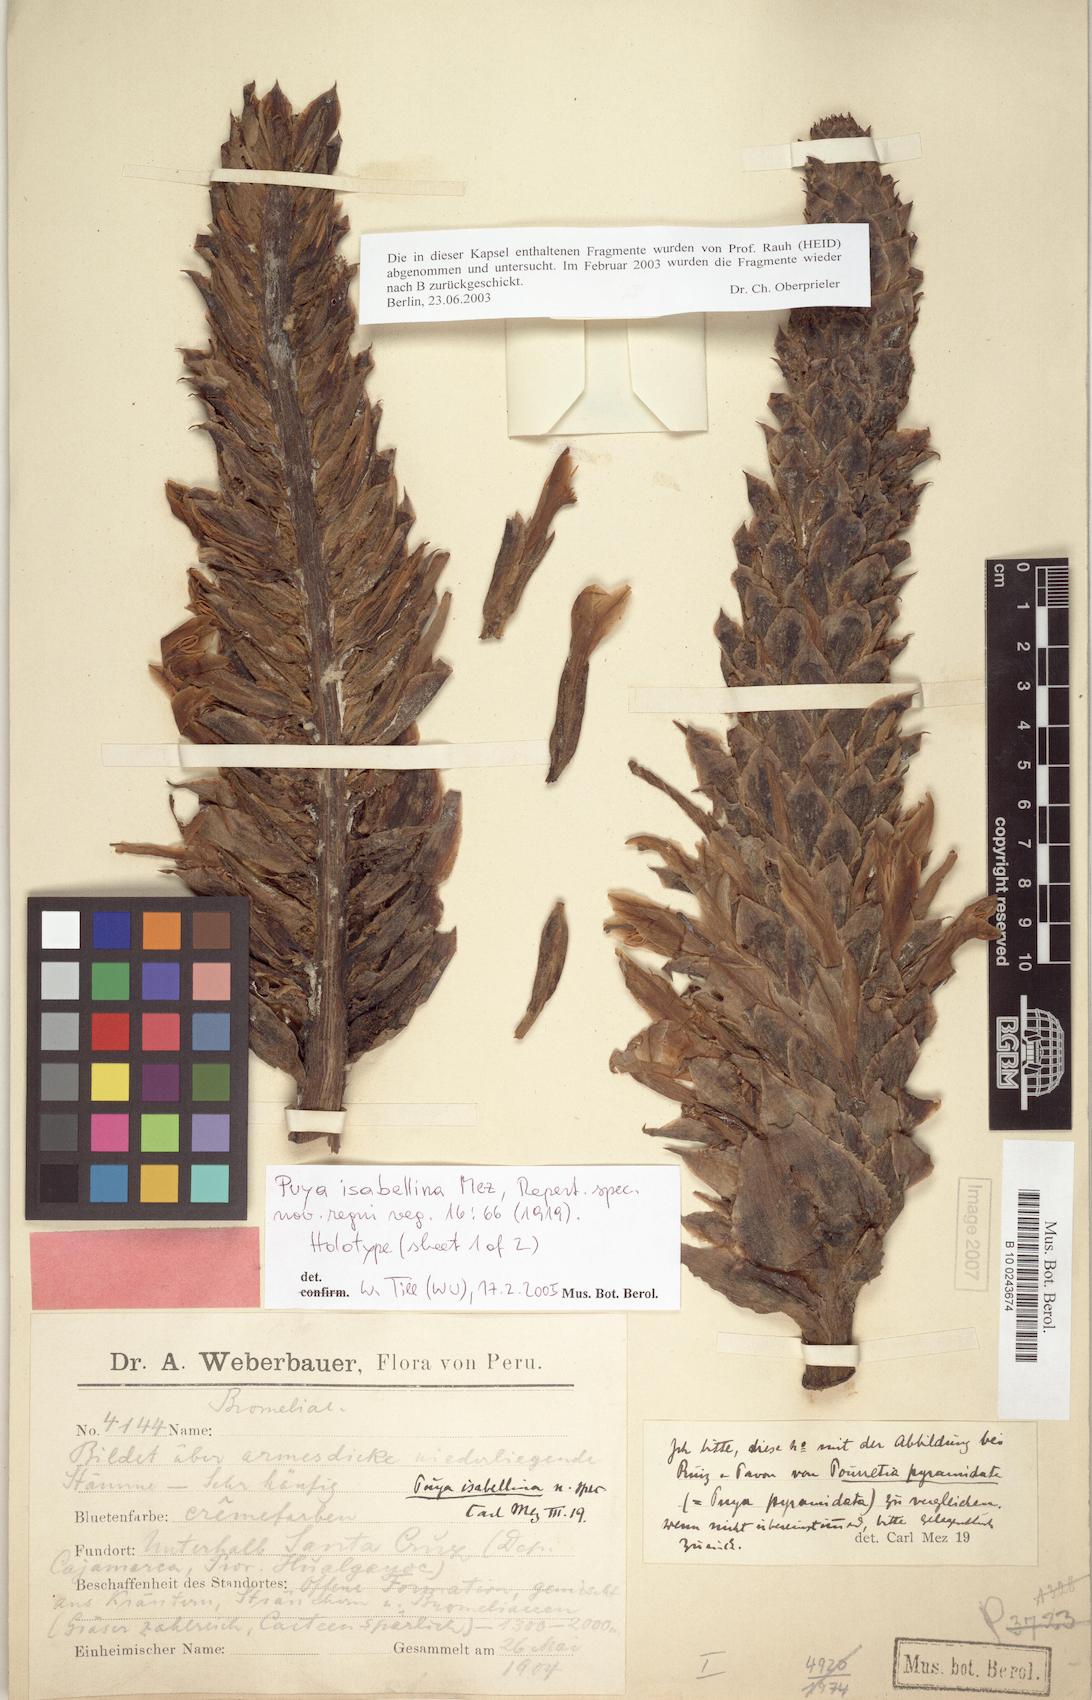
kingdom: Plantae
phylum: Tracheophyta
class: Liliopsida
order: Poales
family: Bromeliaceae
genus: Puya
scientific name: Puya isabellina
